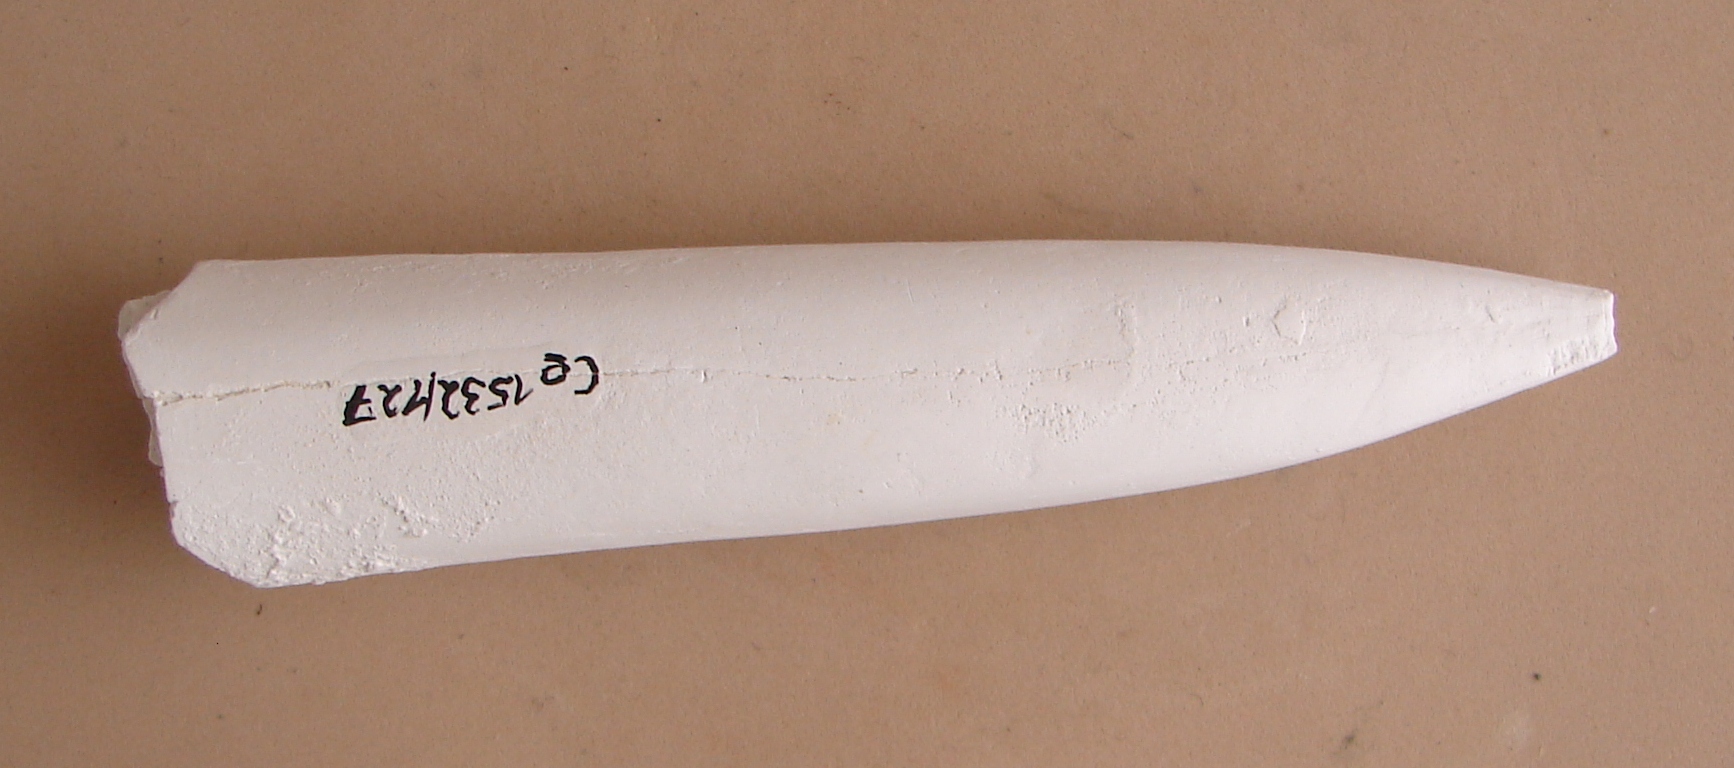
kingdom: Animalia
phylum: Mollusca
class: Cephalopoda
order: Belemnitida
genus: Eocylindroteuthis
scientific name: Eocylindroteuthis
